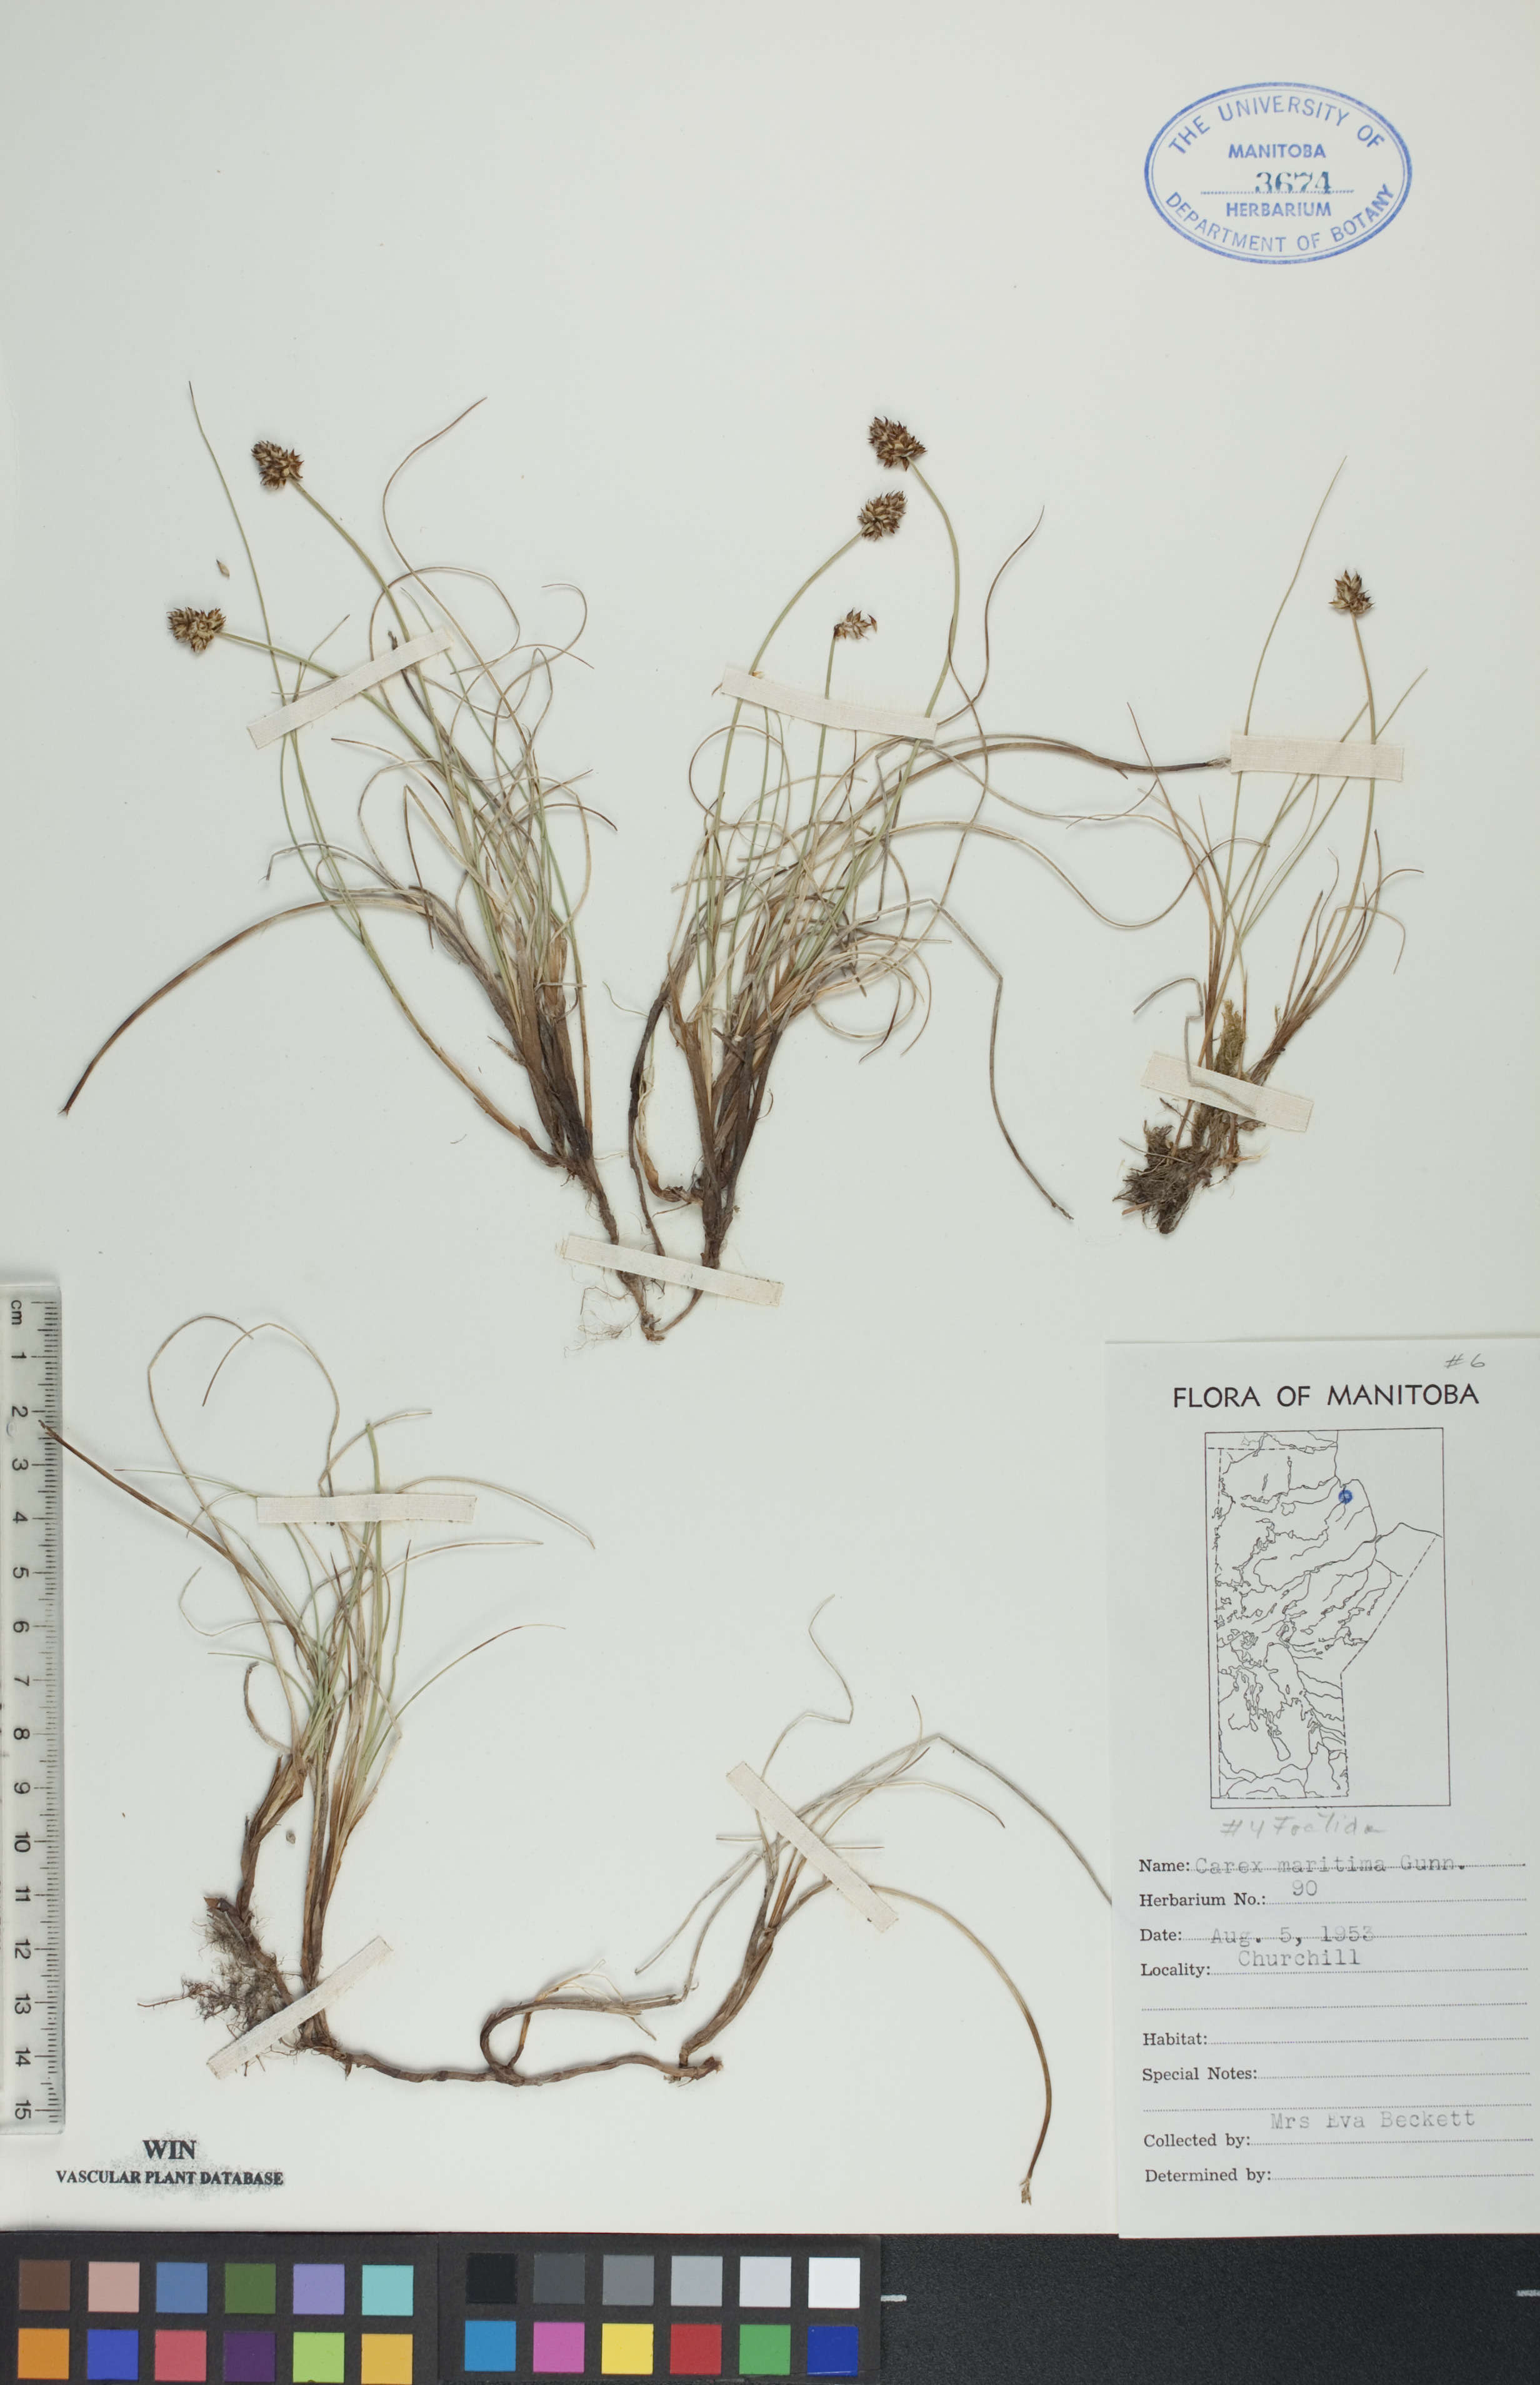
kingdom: Plantae
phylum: Tracheophyta
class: Liliopsida
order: Poales
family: Cyperaceae
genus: Carex
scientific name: Carex maritima
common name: Curved sedge
